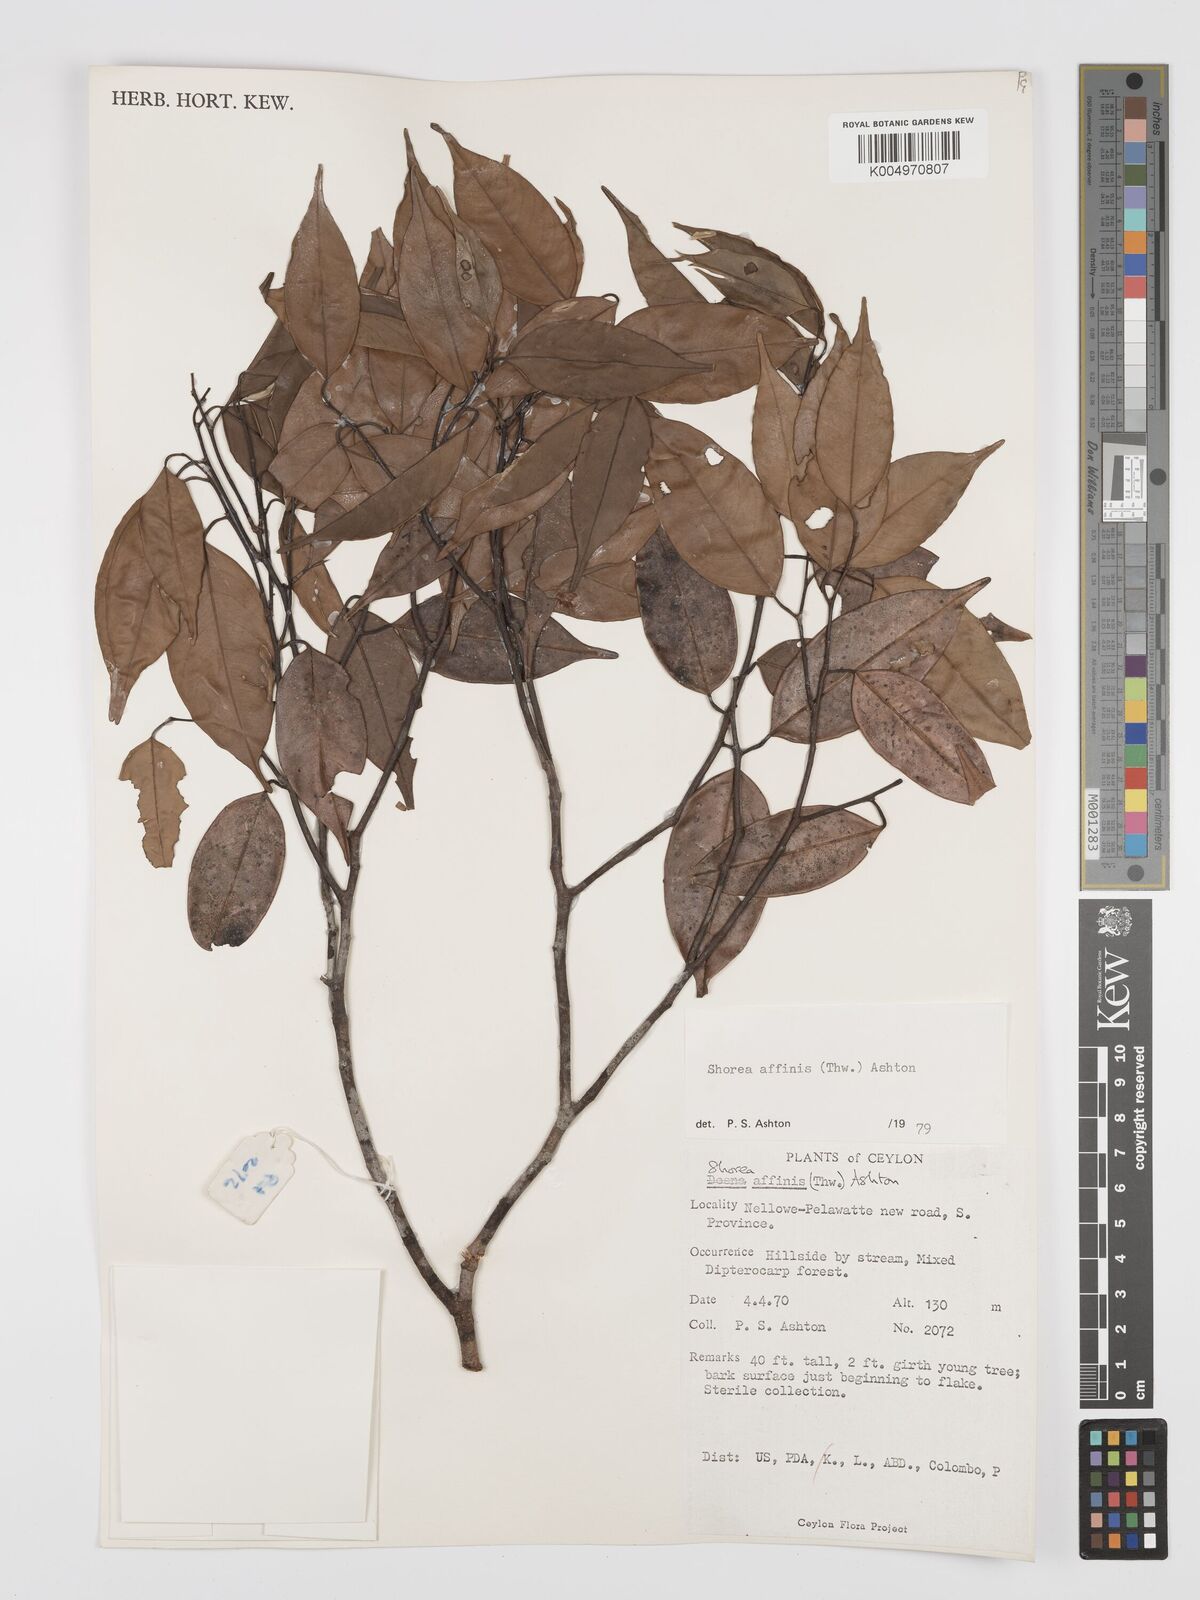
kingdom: Plantae
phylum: Tracheophyta
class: Magnoliopsida
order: Malvales
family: Dipterocarpaceae
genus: Doona
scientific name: Doona affinis
